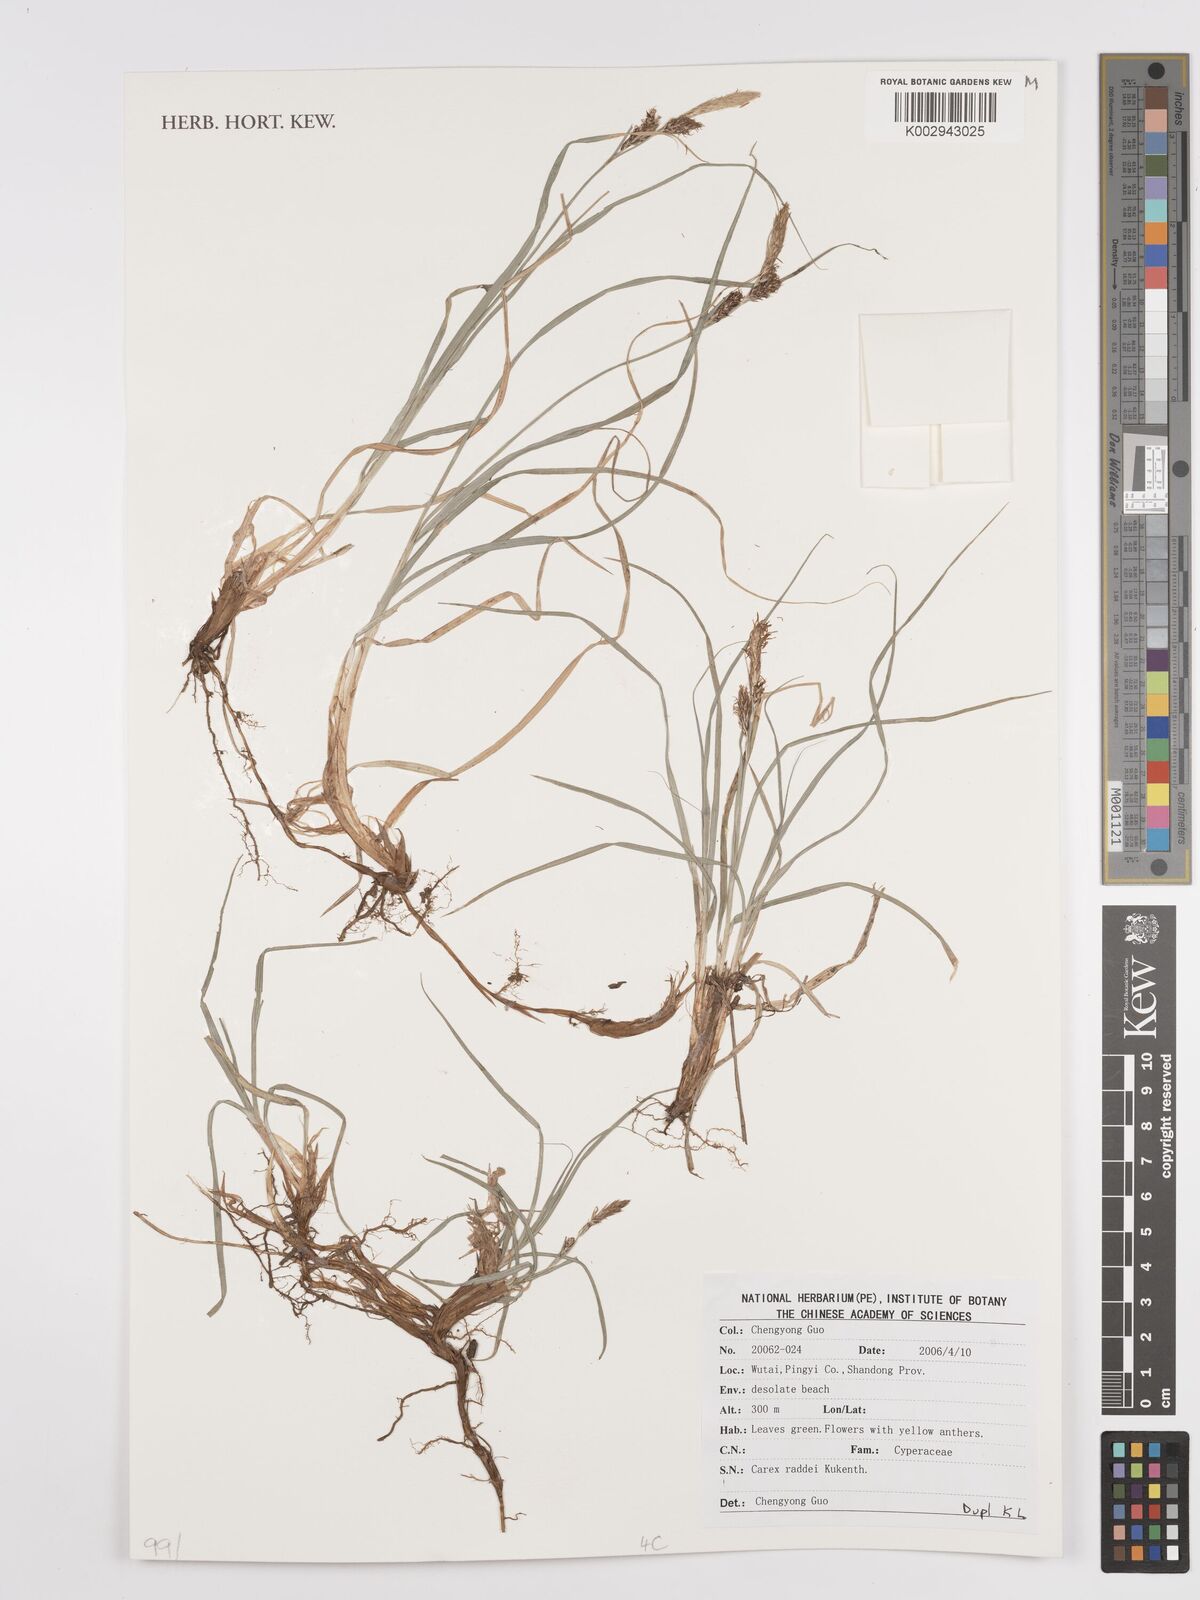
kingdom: Plantae
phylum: Tracheophyta
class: Liliopsida
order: Poales
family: Cyperaceae
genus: Carex
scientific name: Carex raddei
